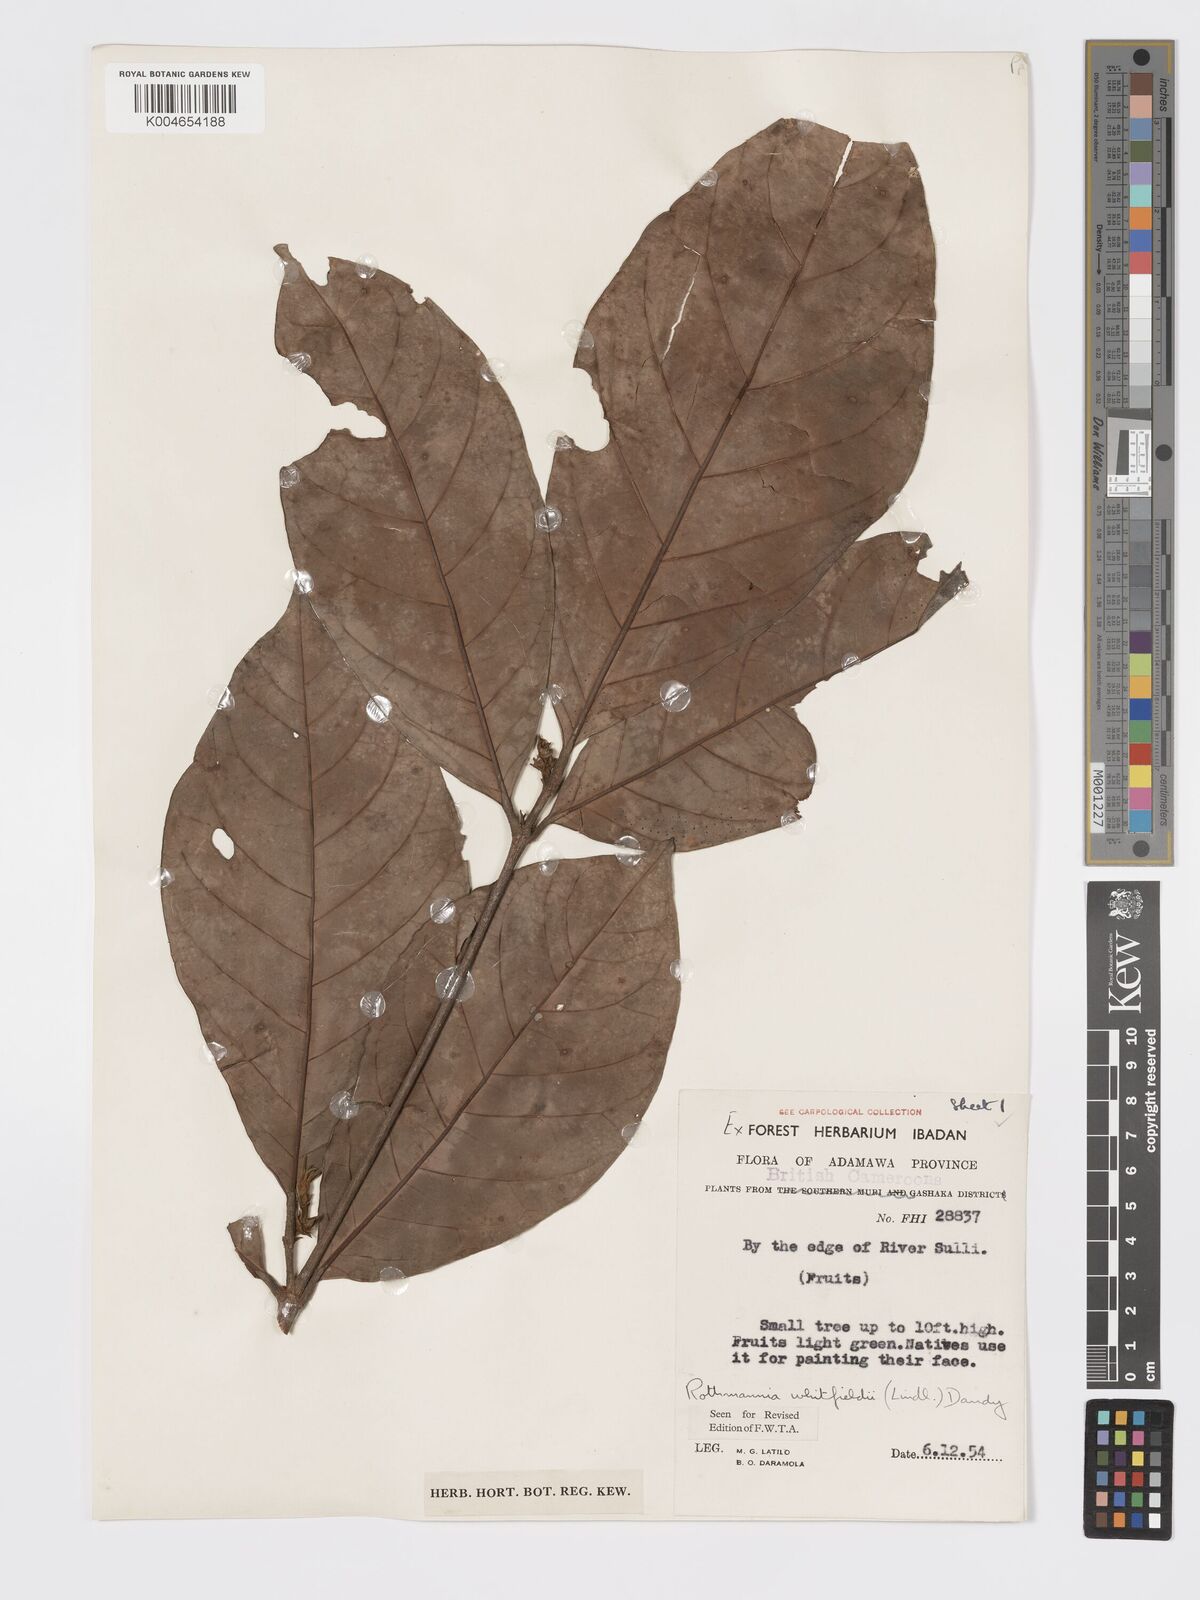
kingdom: Plantae
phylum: Tracheophyta
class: Magnoliopsida
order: Gentianales
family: Rubiaceae
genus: Rothmannia
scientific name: Rothmannia whitfieldii
